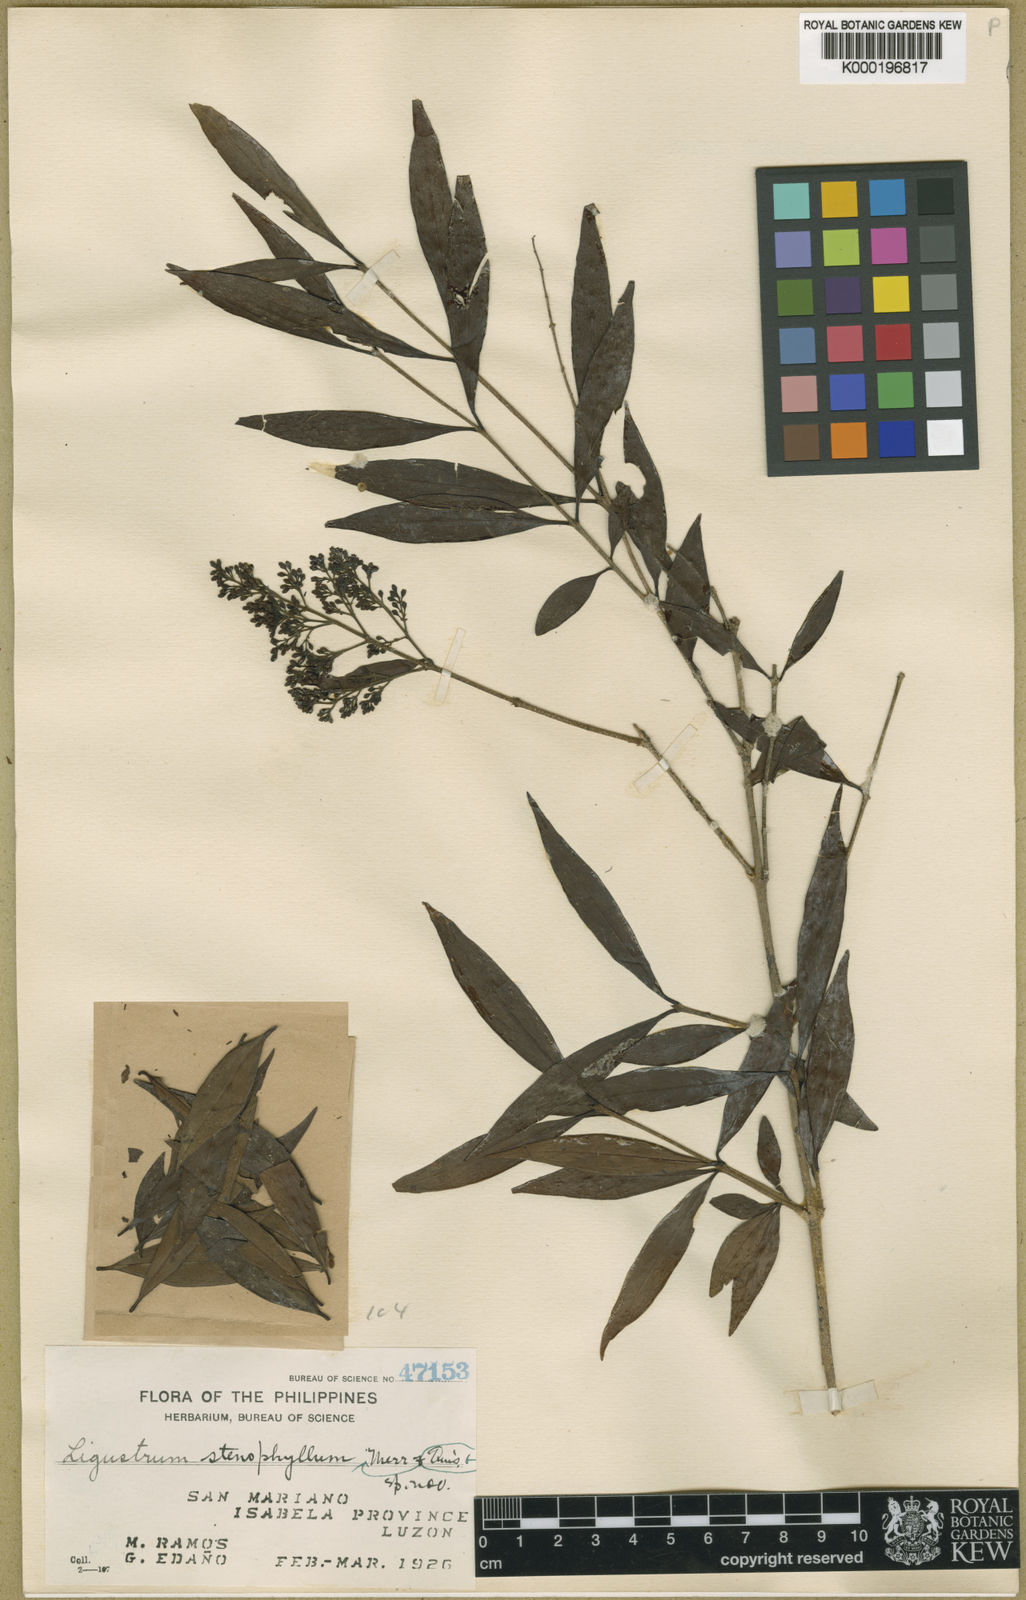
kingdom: Plantae
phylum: Tracheophyta
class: Magnoliopsida
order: Lamiales
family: Oleaceae
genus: Ligustrum
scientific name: Ligustrum stenophyllum
